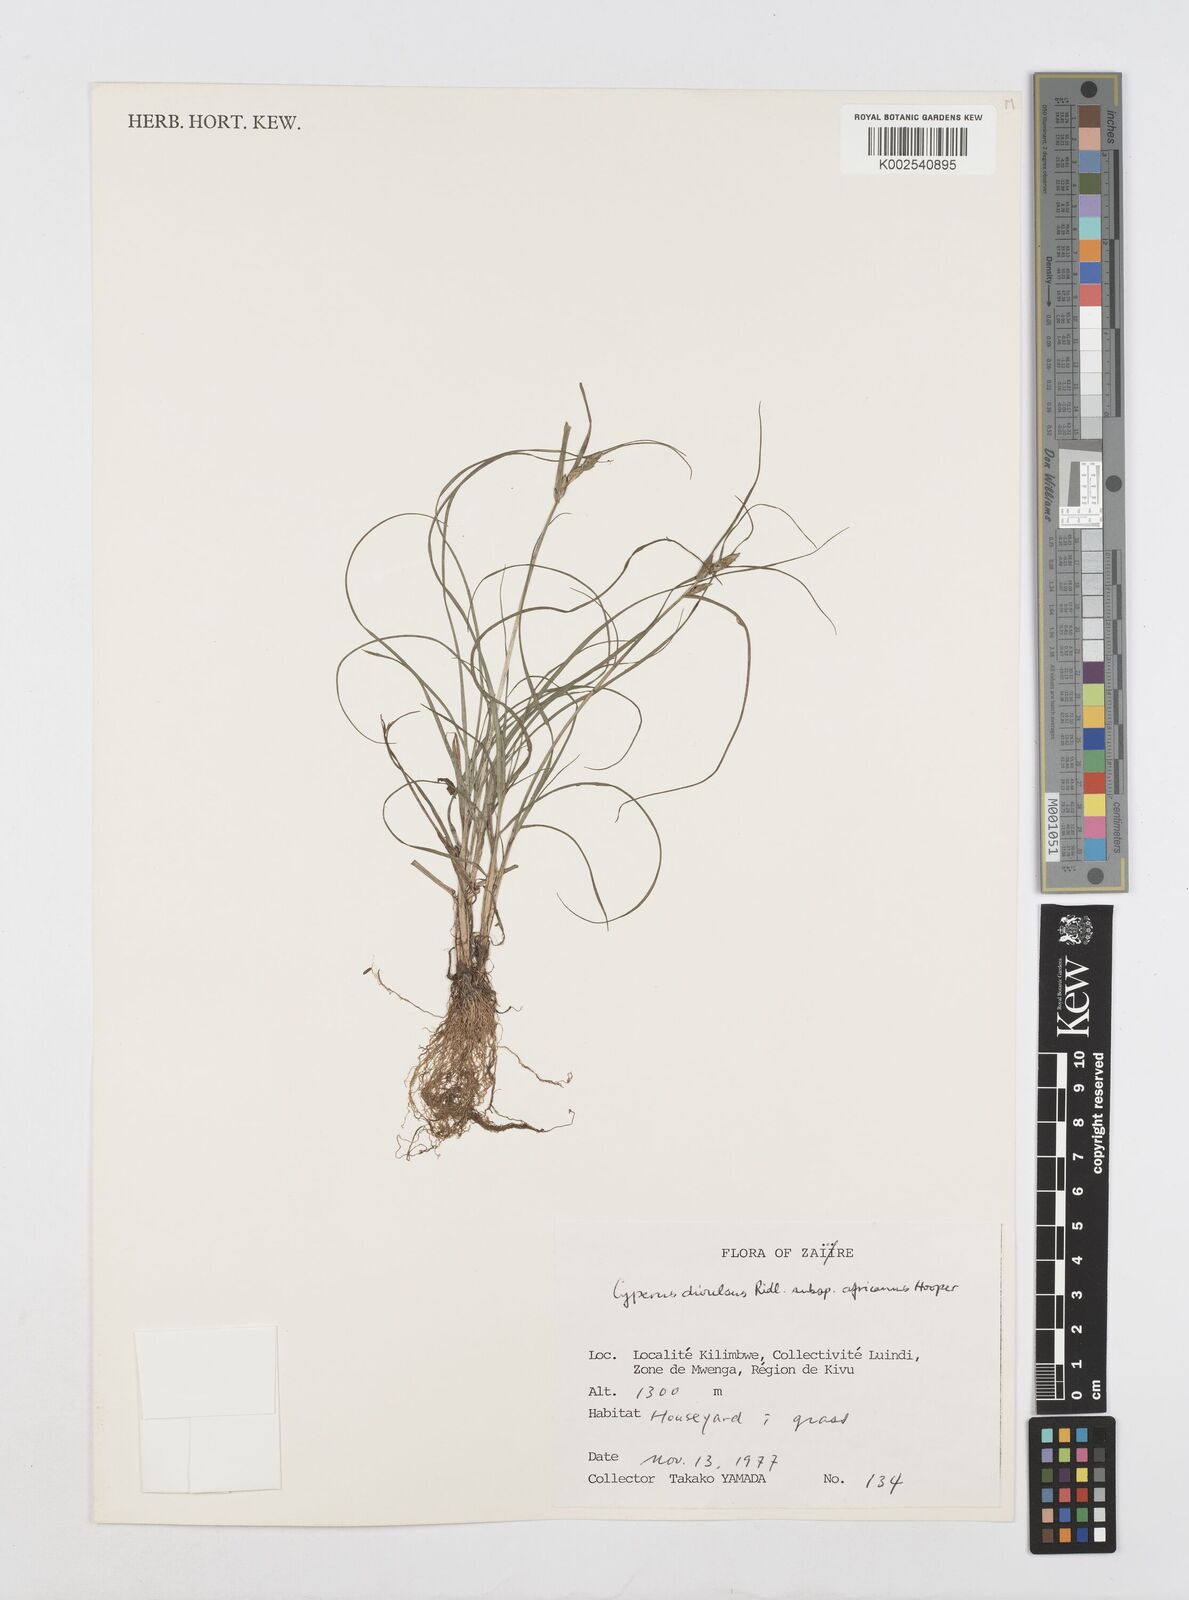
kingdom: Plantae
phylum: Tracheophyta
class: Liliopsida
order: Poales
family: Cyperaceae
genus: Cyperus
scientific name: Cyperus divulsus
